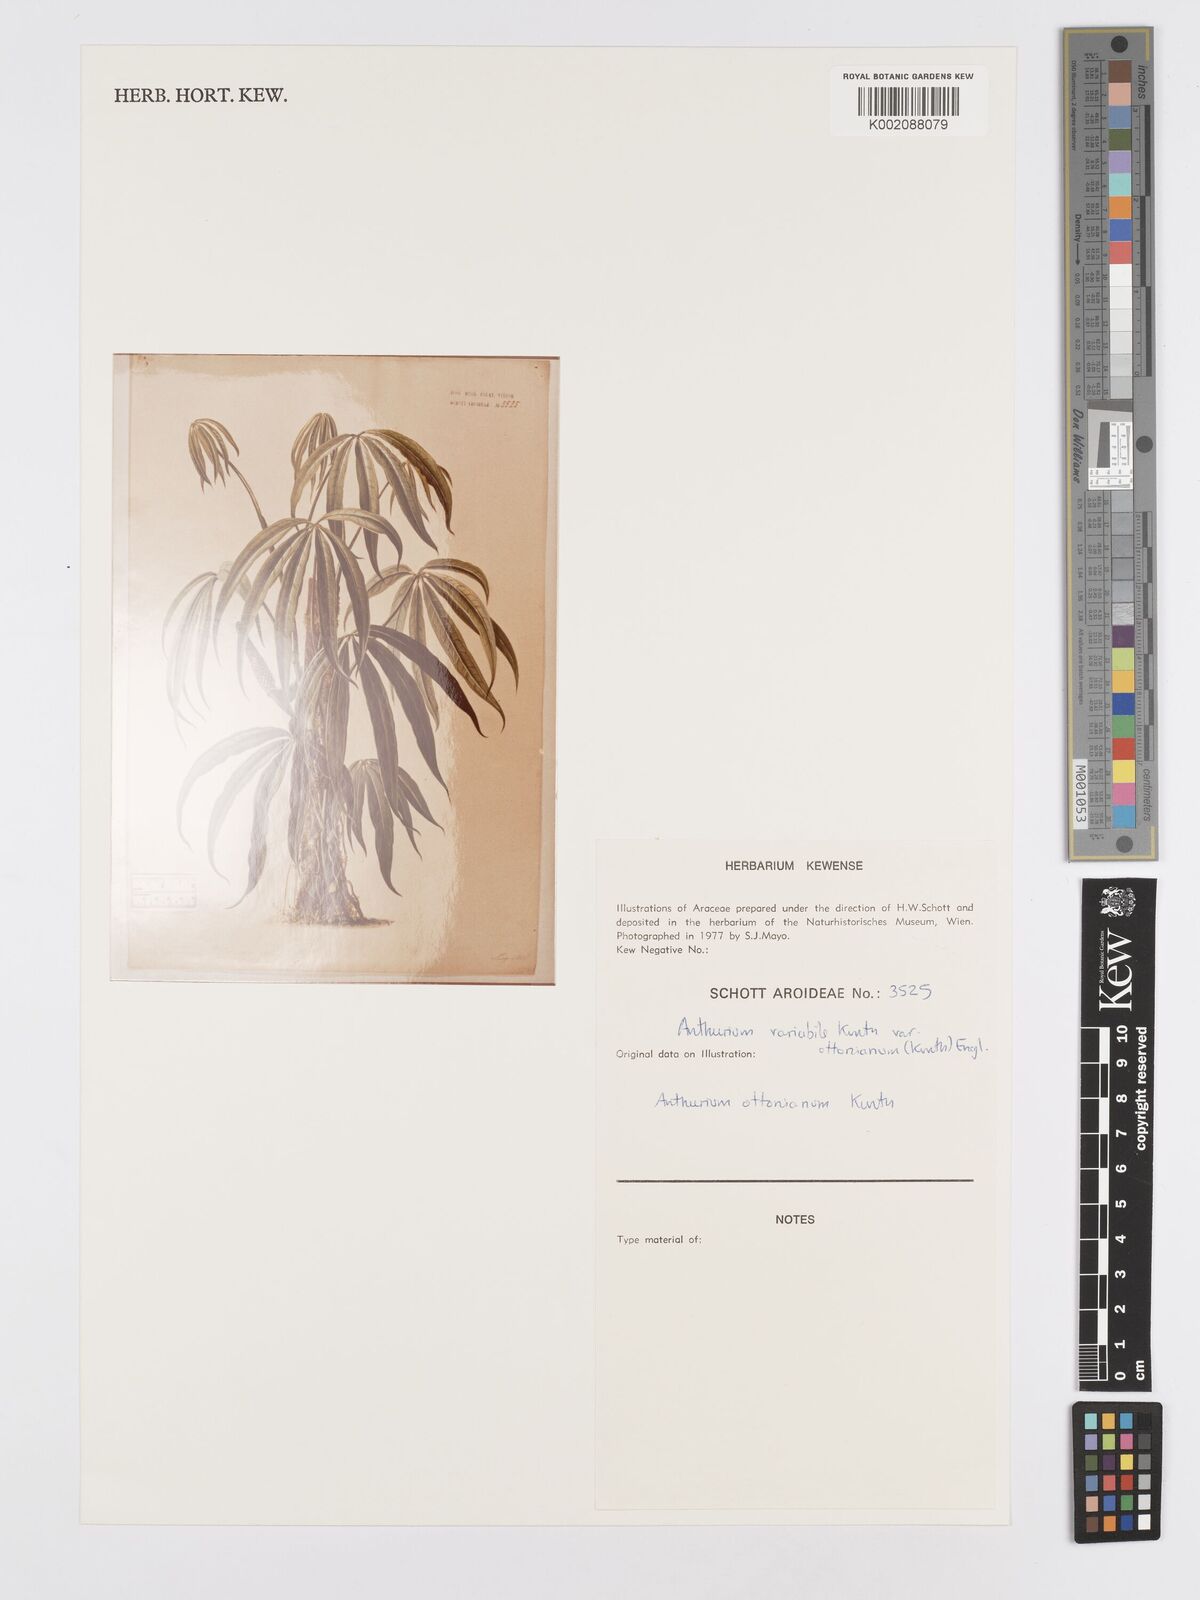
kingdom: Plantae
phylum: Tracheophyta
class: Liliopsida
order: Alismatales
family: Araceae
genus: Anthurium
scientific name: Anthurium pentaphyllum
